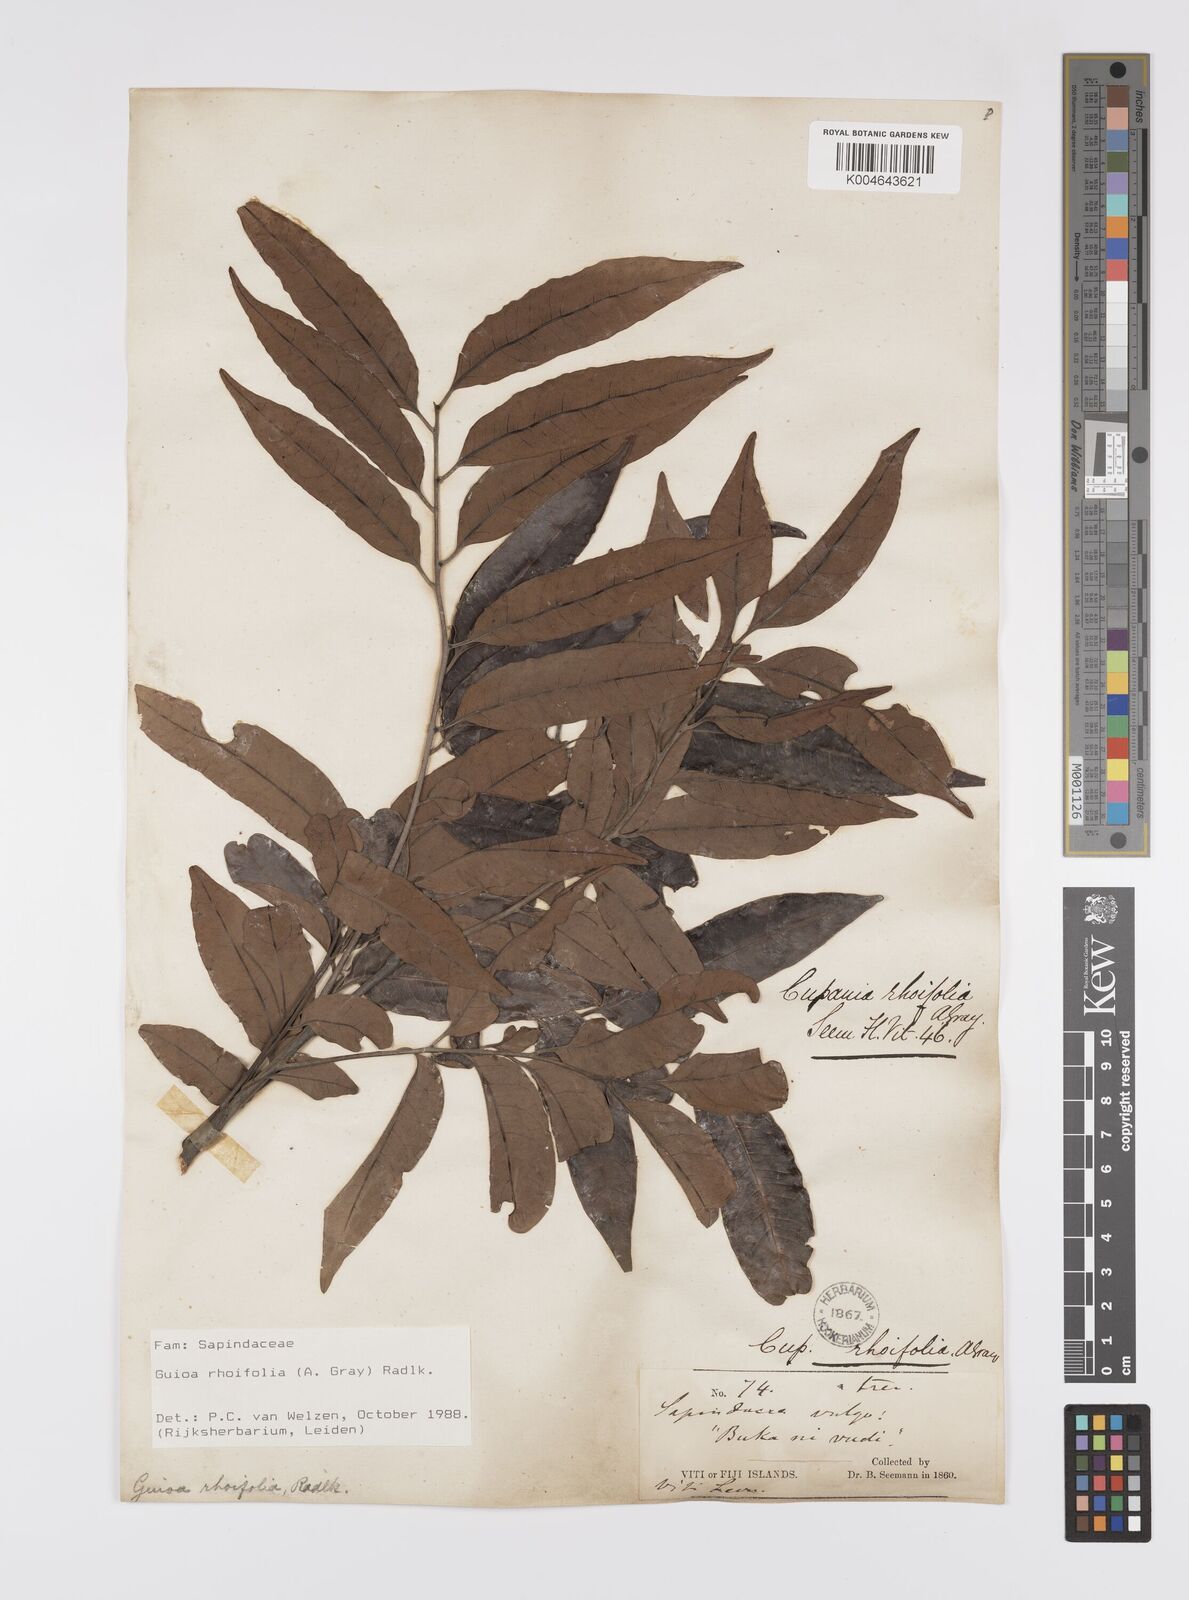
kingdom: Plantae
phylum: Tracheophyta
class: Magnoliopsida
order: Sapindales
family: Sapindaceae
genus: Guioa
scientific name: Guioa rhoifolia
